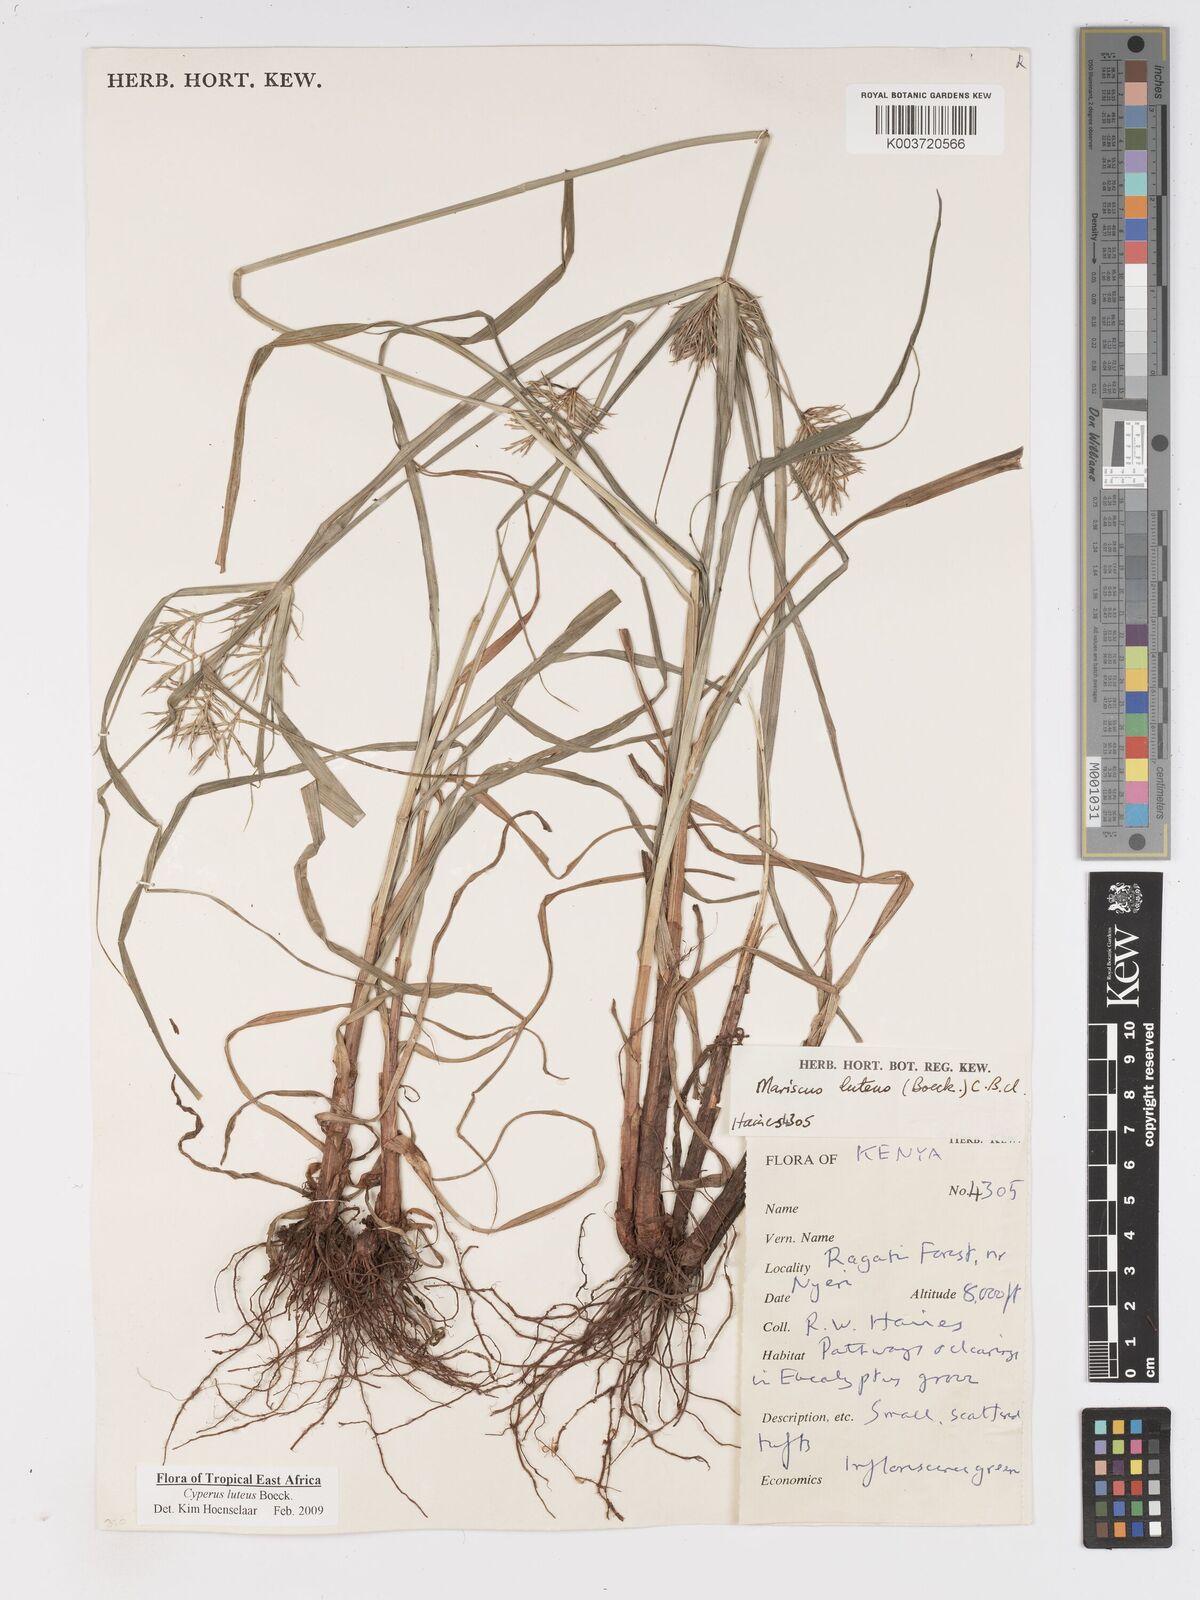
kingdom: Plantae
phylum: Tracheophyta
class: Liliopsida
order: Poales
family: Cyperaceae
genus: Cyperus
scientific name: Cyperus luteus
